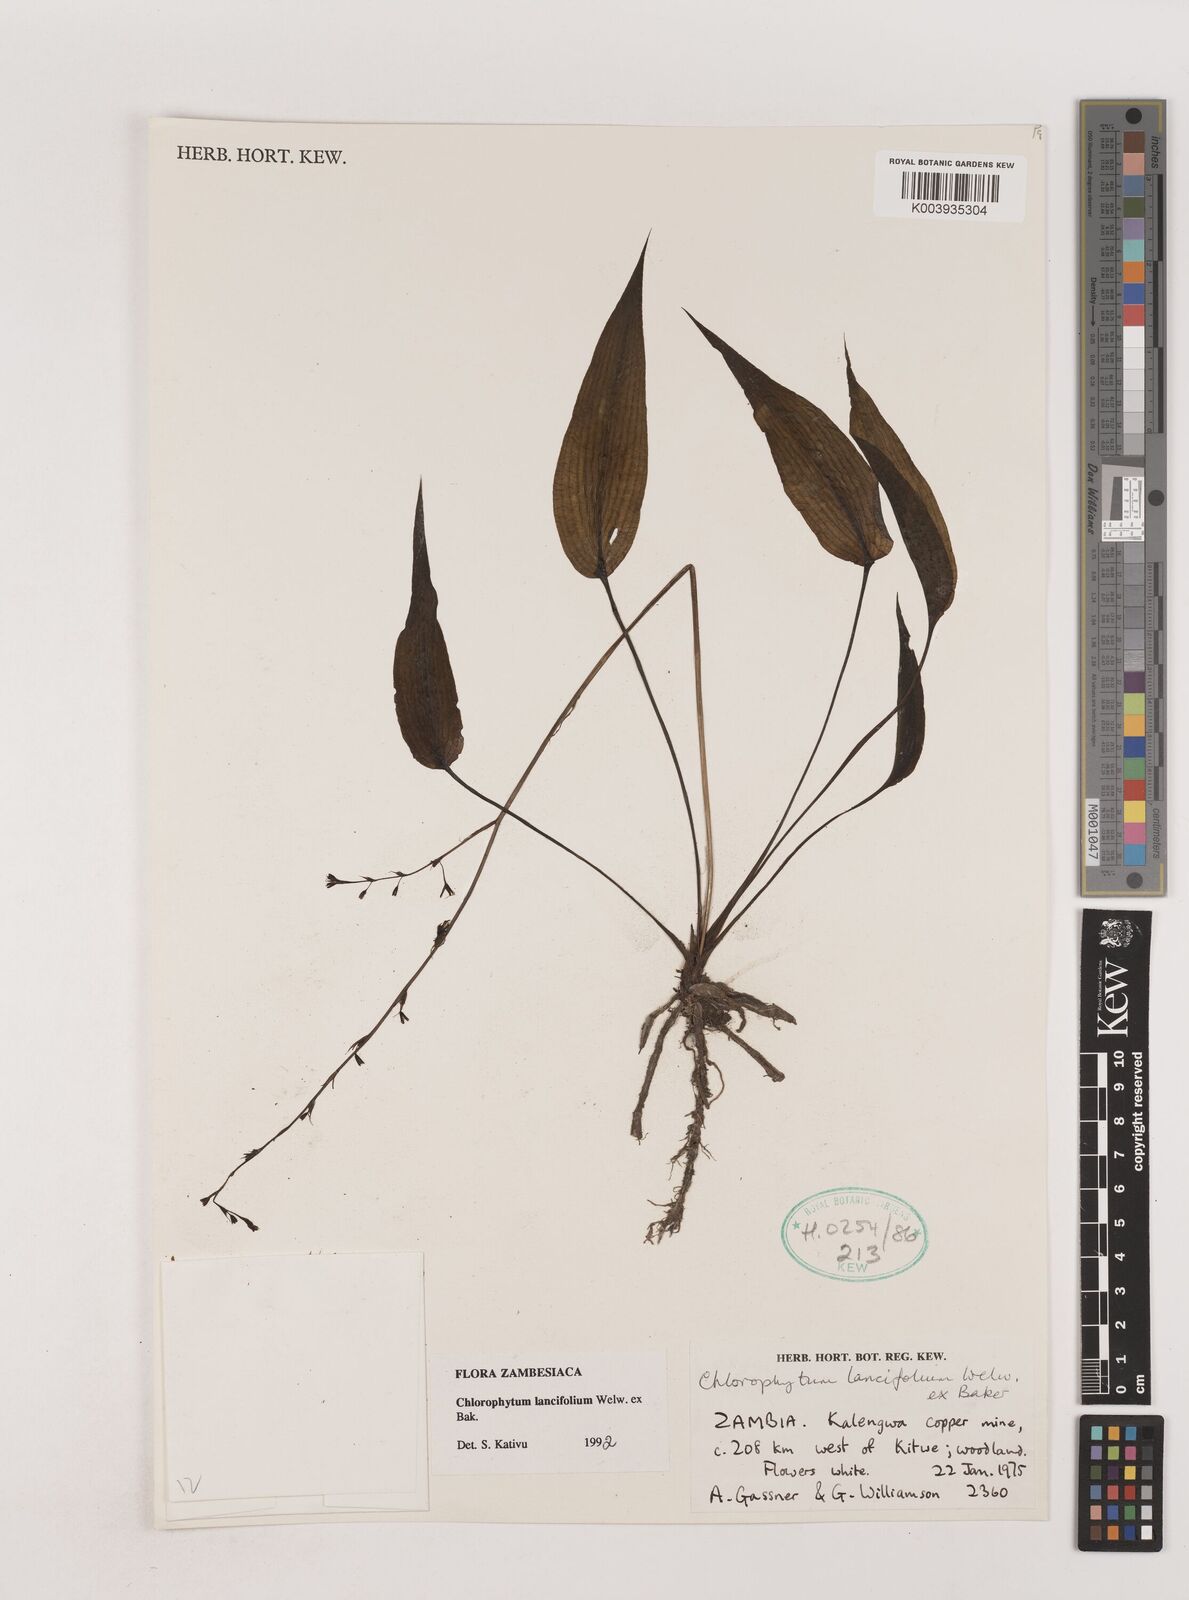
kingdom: Plantae
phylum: Tracheophyta
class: Liliopsida
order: Asparagales
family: Asparagaceae
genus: Chlorophytum
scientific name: Chlorophytum lancifolium
